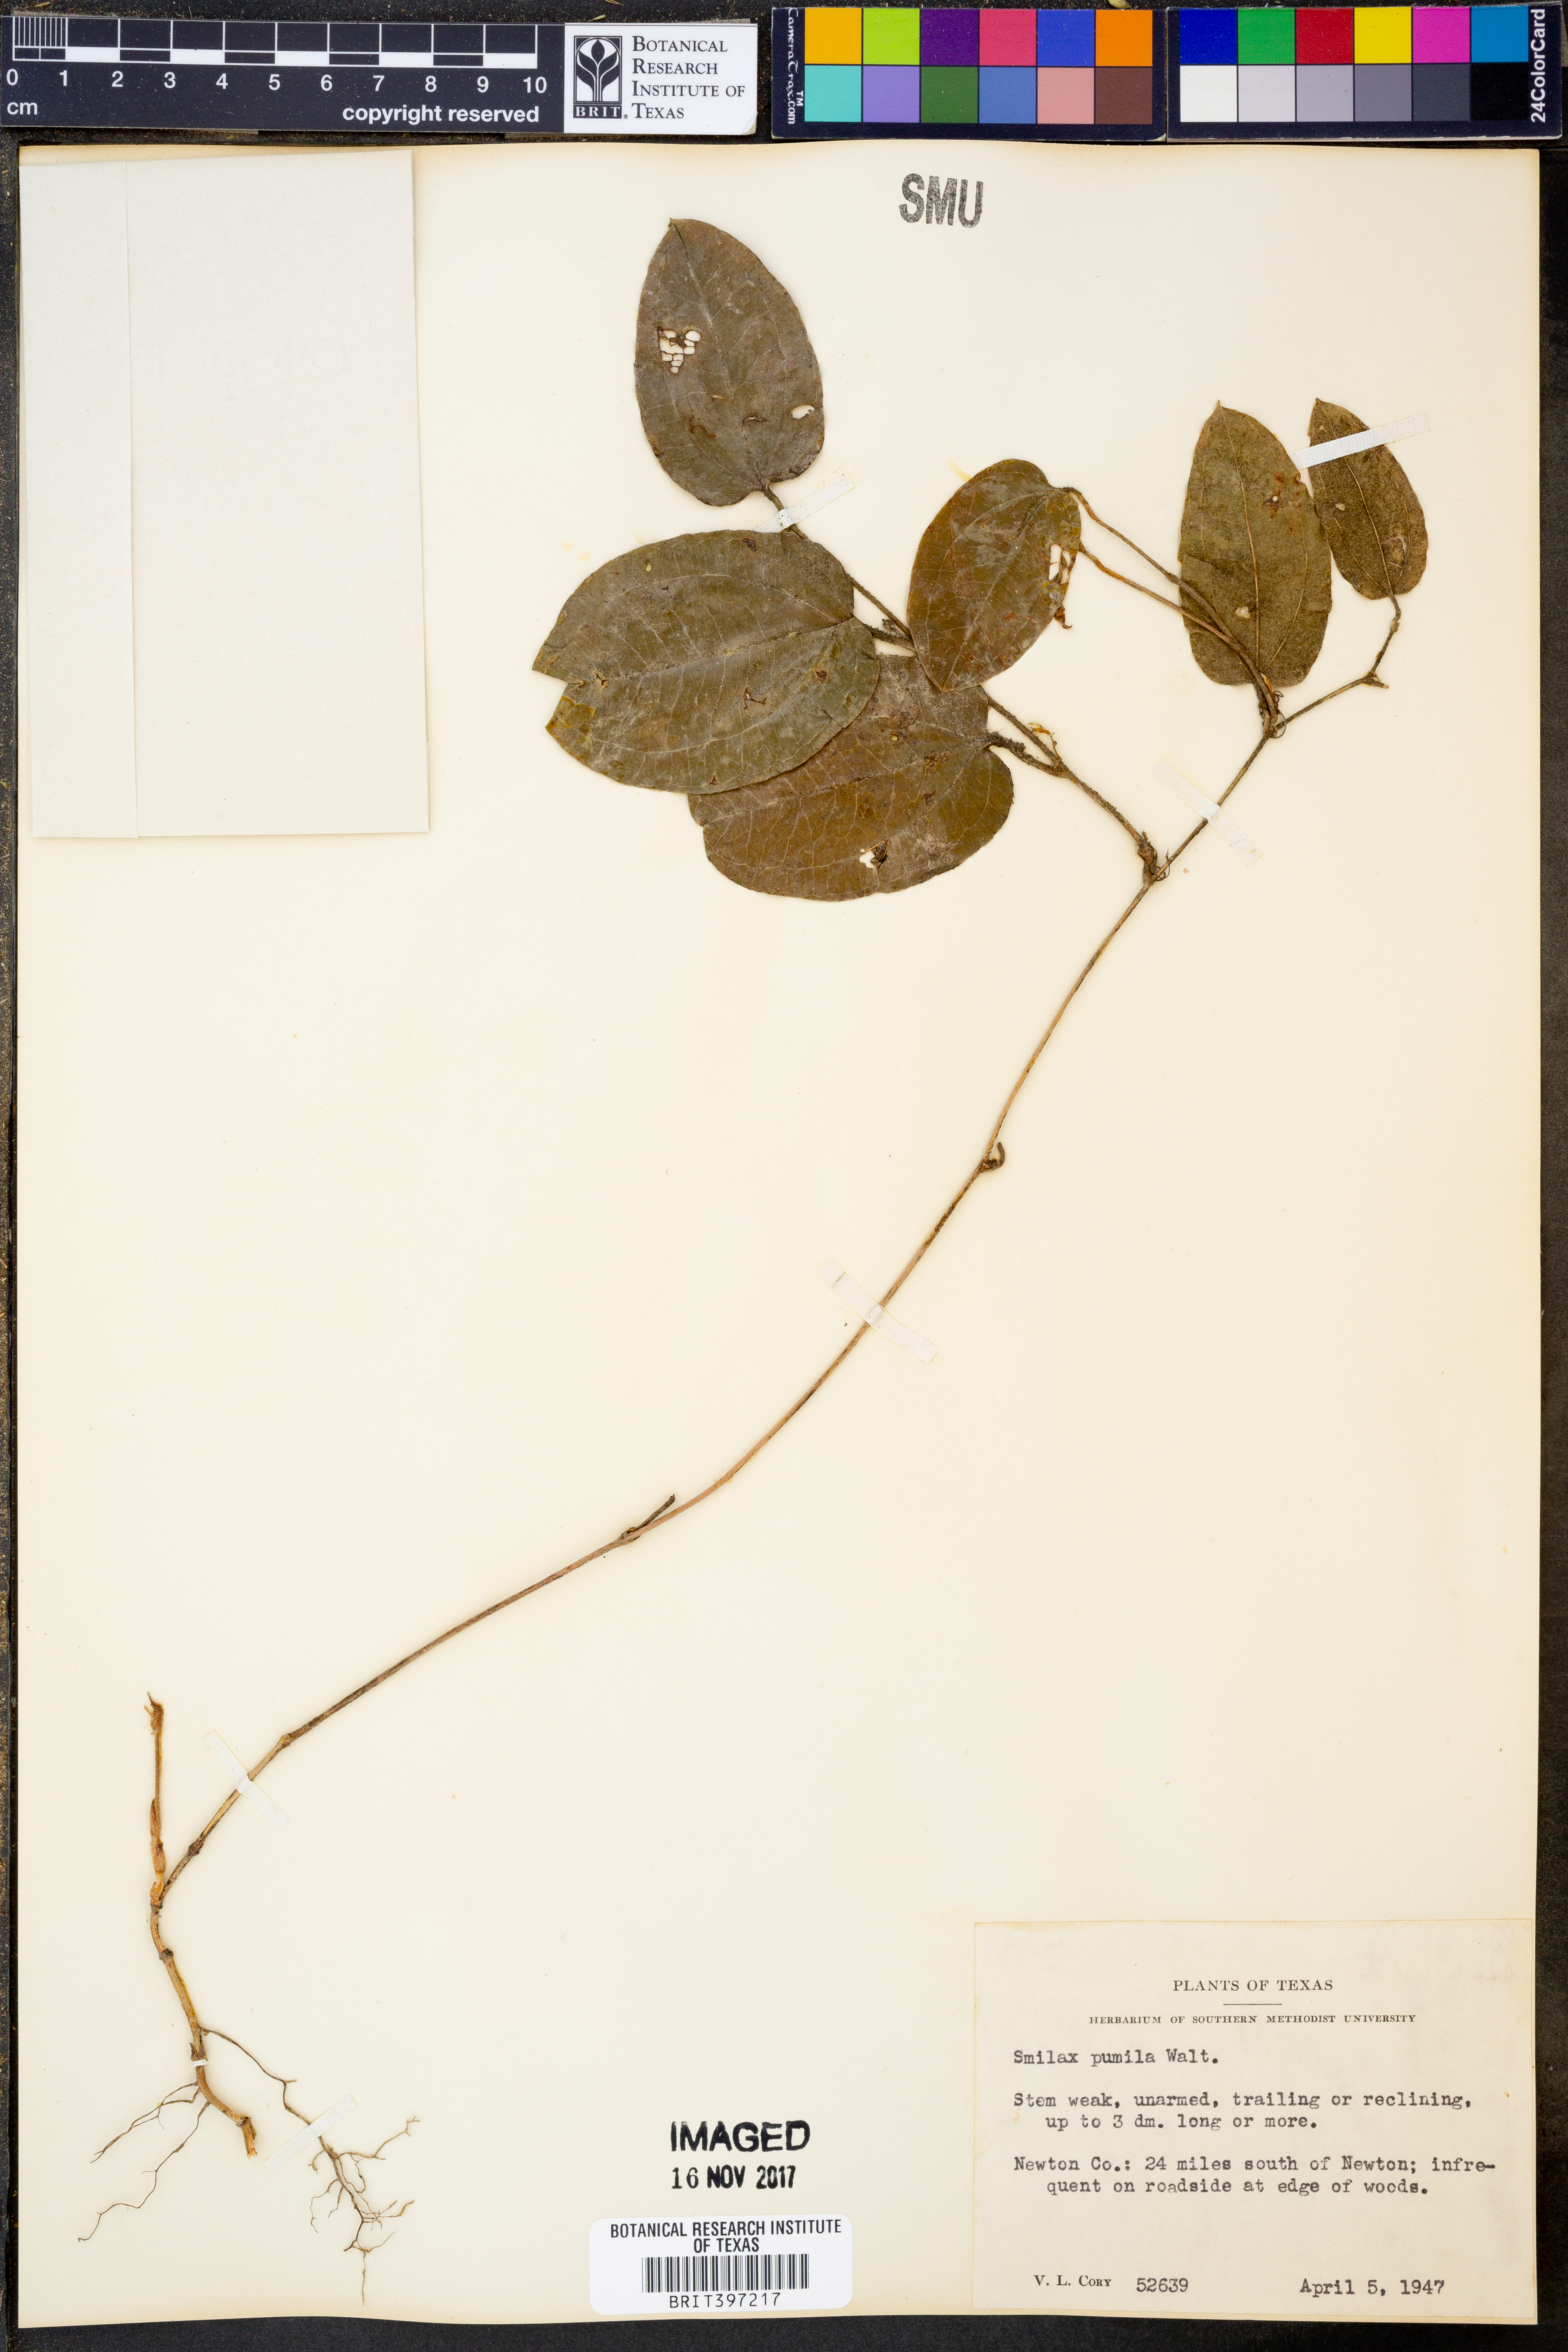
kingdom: Plantae
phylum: Tracheophyta
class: Liliopsida
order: Liliales
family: Smilacaceae
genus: Smilax
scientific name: Smilax pumila
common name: Sarsaparilla-vine
